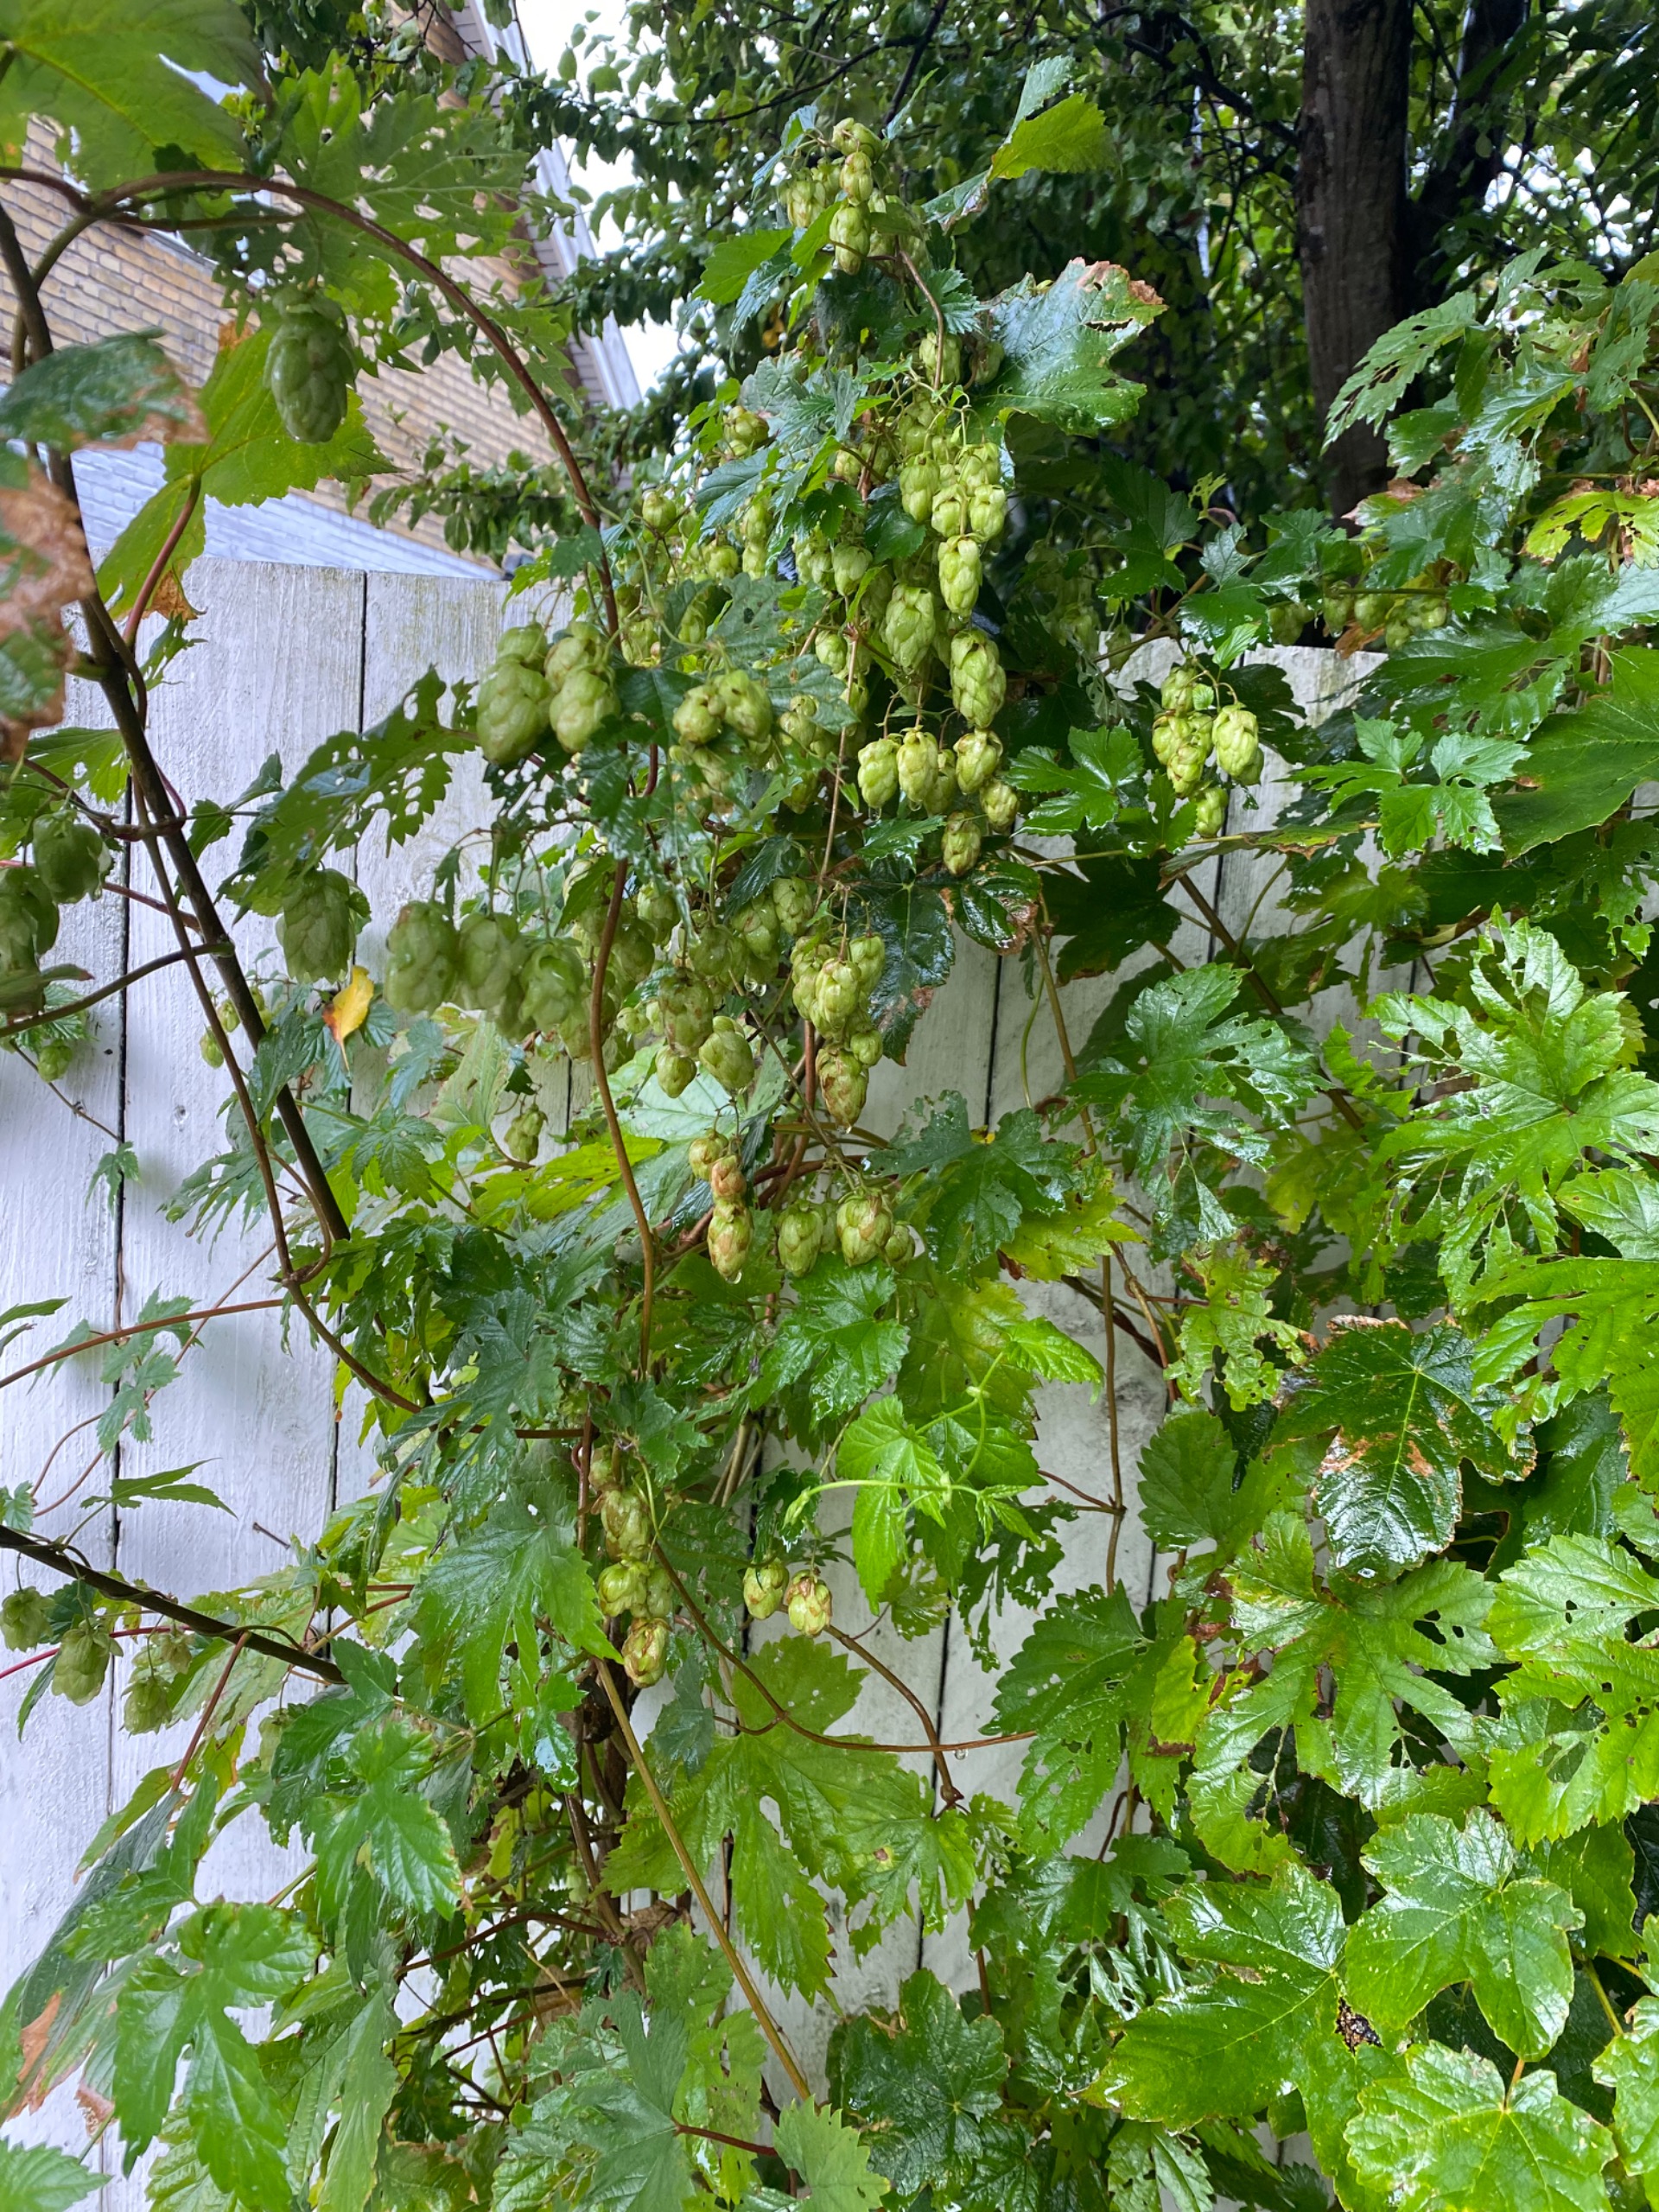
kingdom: Plantae
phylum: Tracheophyta
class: Magnoliopsida
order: Rosales
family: Cannabaceae
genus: Humulus
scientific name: Humulus lupulus
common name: Humle
